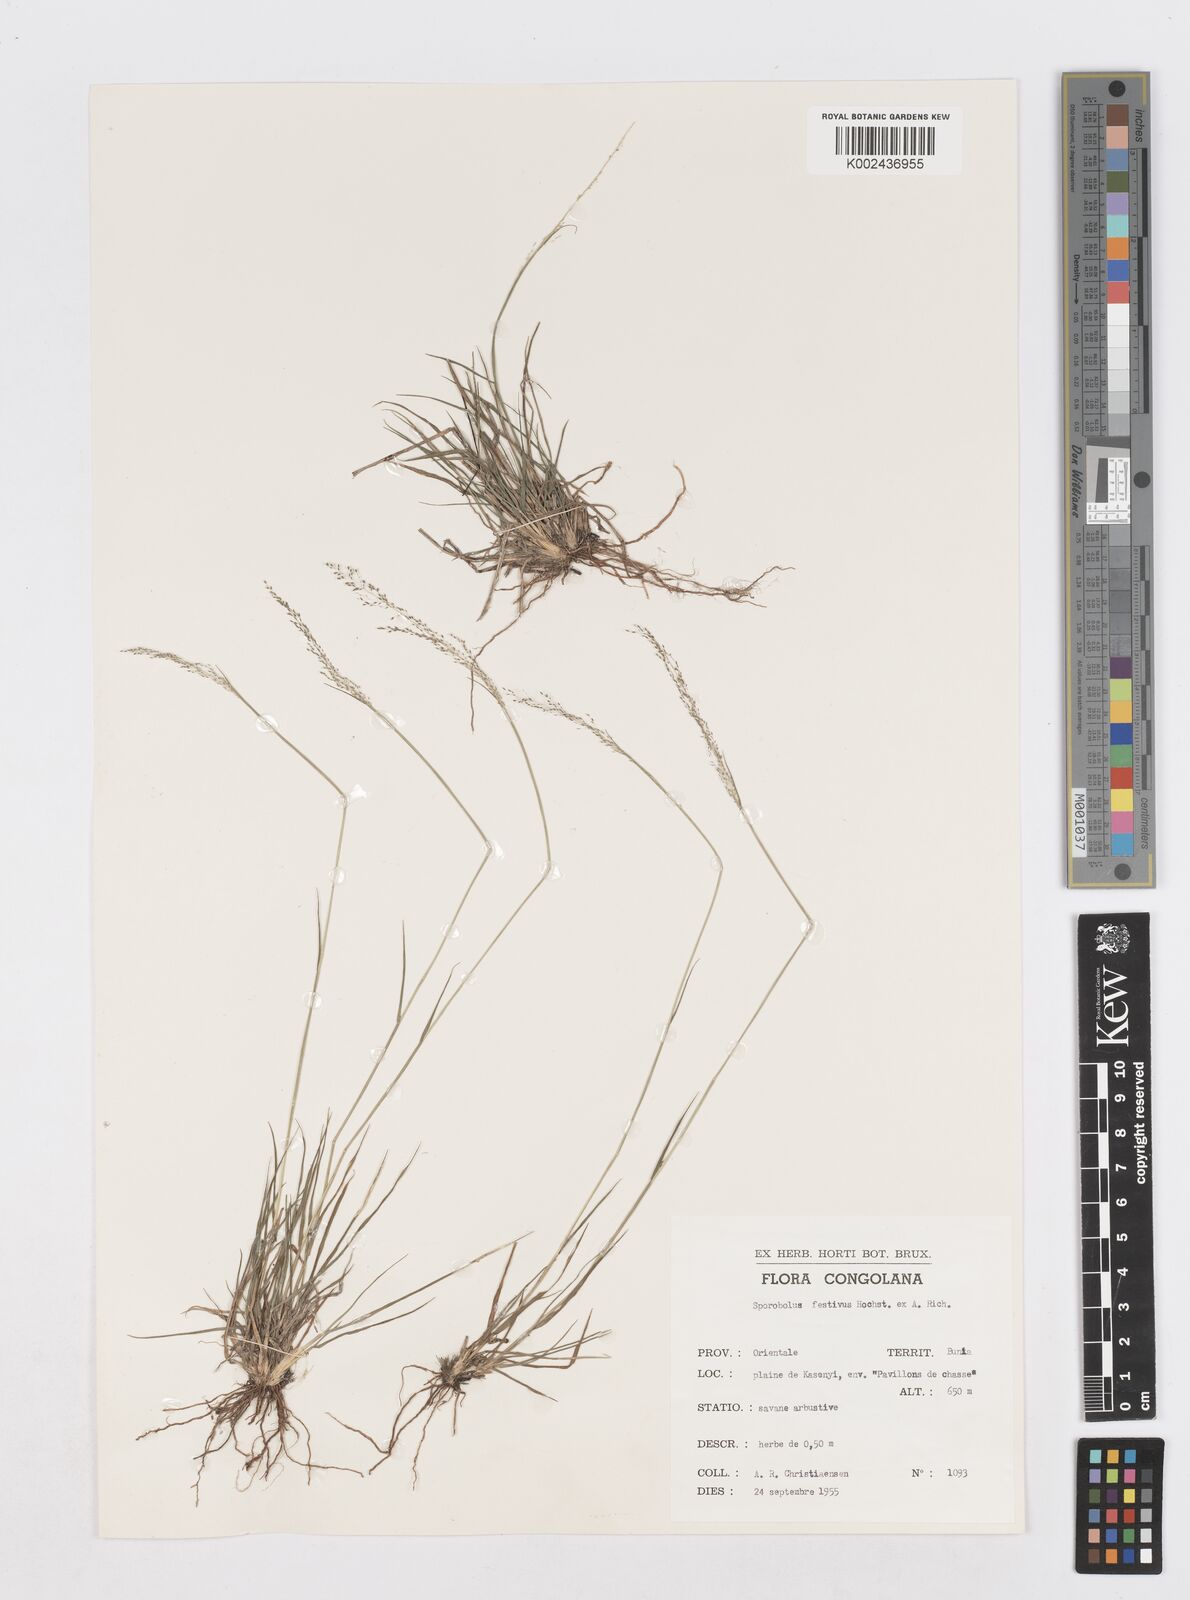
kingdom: Plantae
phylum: Tracheophyta
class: Liliopsida
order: Poales
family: Poaceae
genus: Sporobolus
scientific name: Sporobolus festivus
